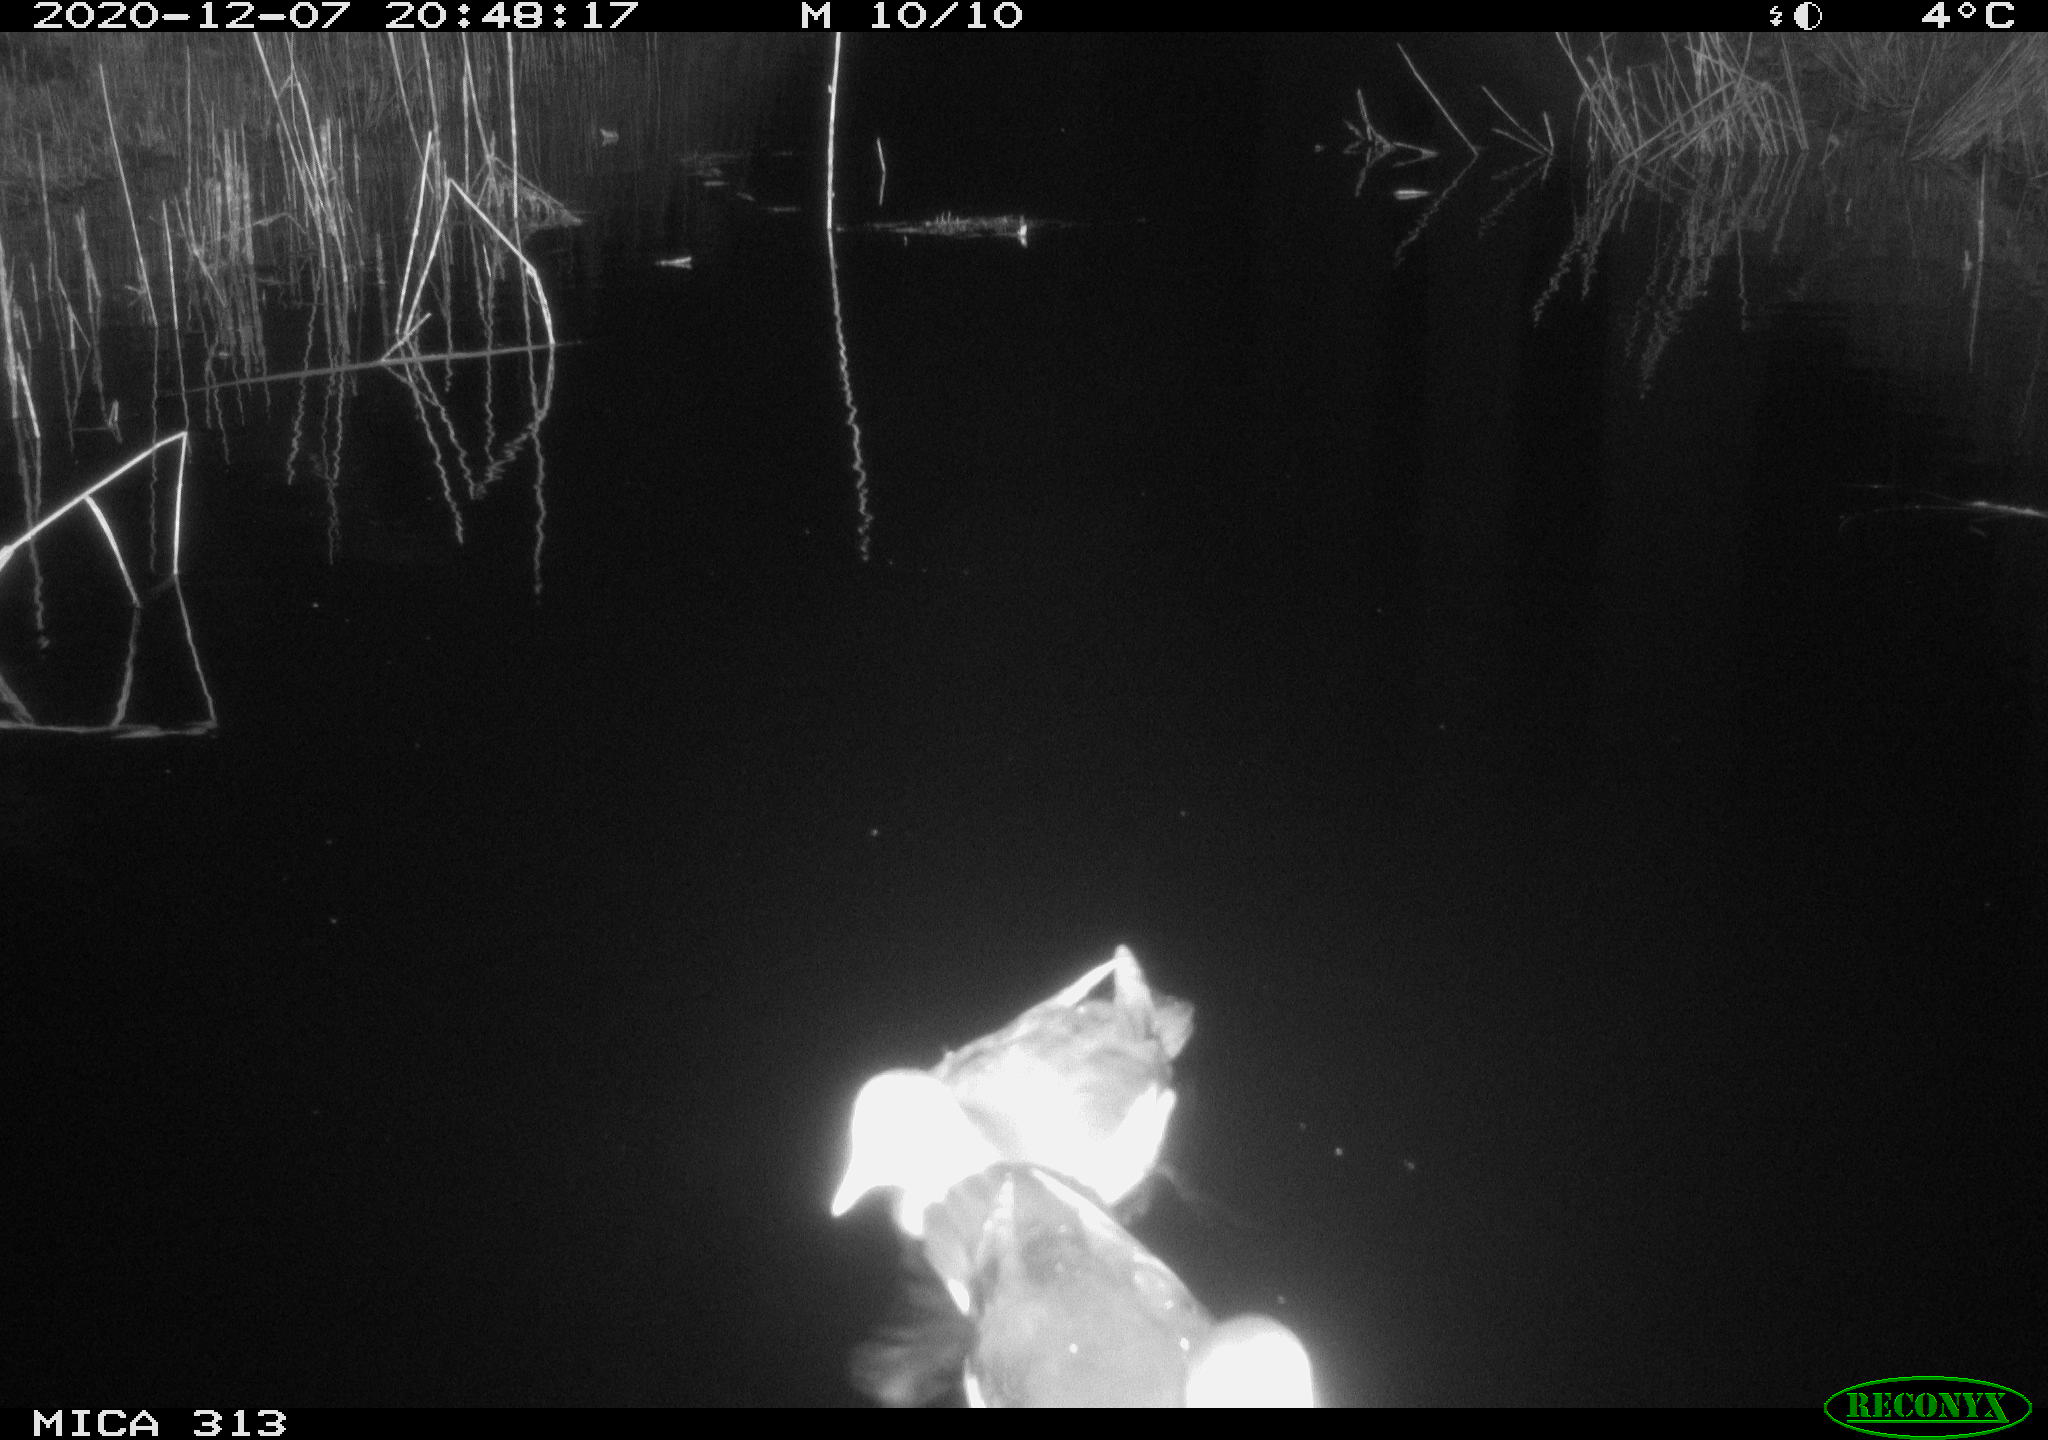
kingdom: Animalia
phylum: Chordata
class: Aves
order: Gruiformes
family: Rallidae
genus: Gallinula
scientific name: Gallinula chloropus
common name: Common moorhen
